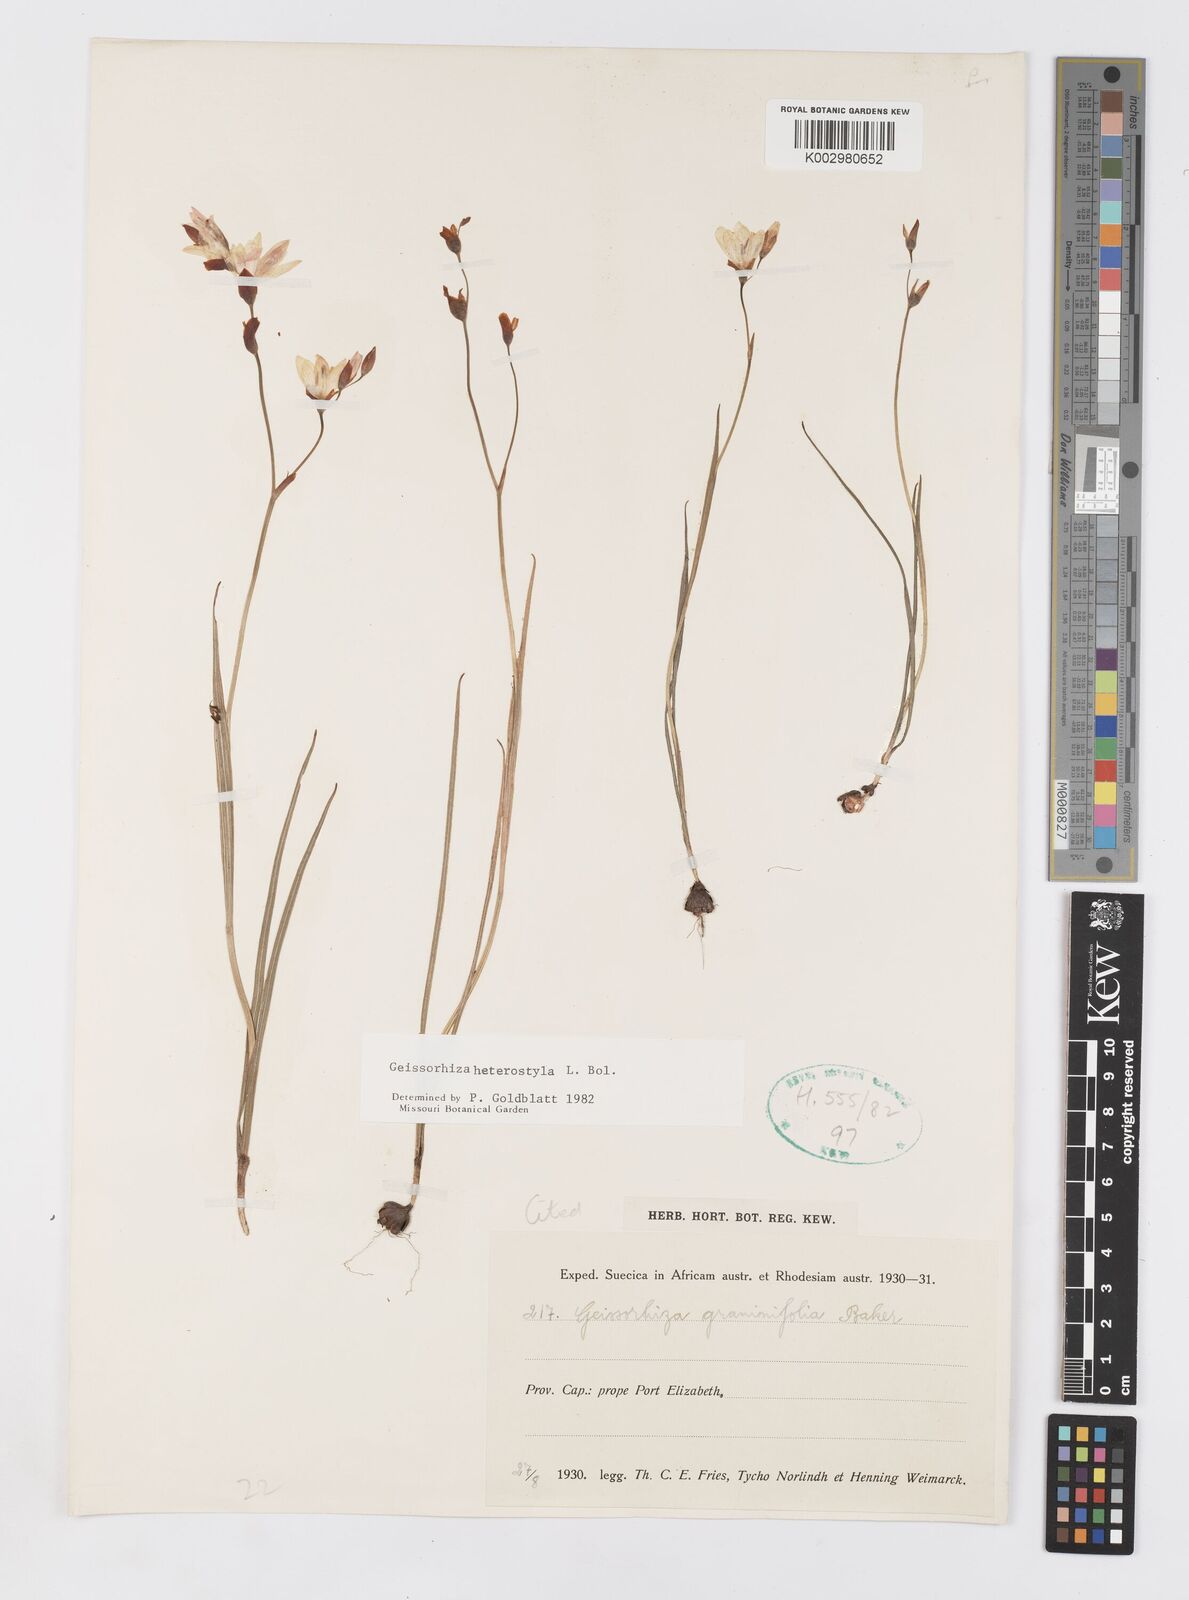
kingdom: Plantae
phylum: Tracheophyta
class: Liliopsida
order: Asparagales
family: Iridaceae
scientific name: Iridaceae
